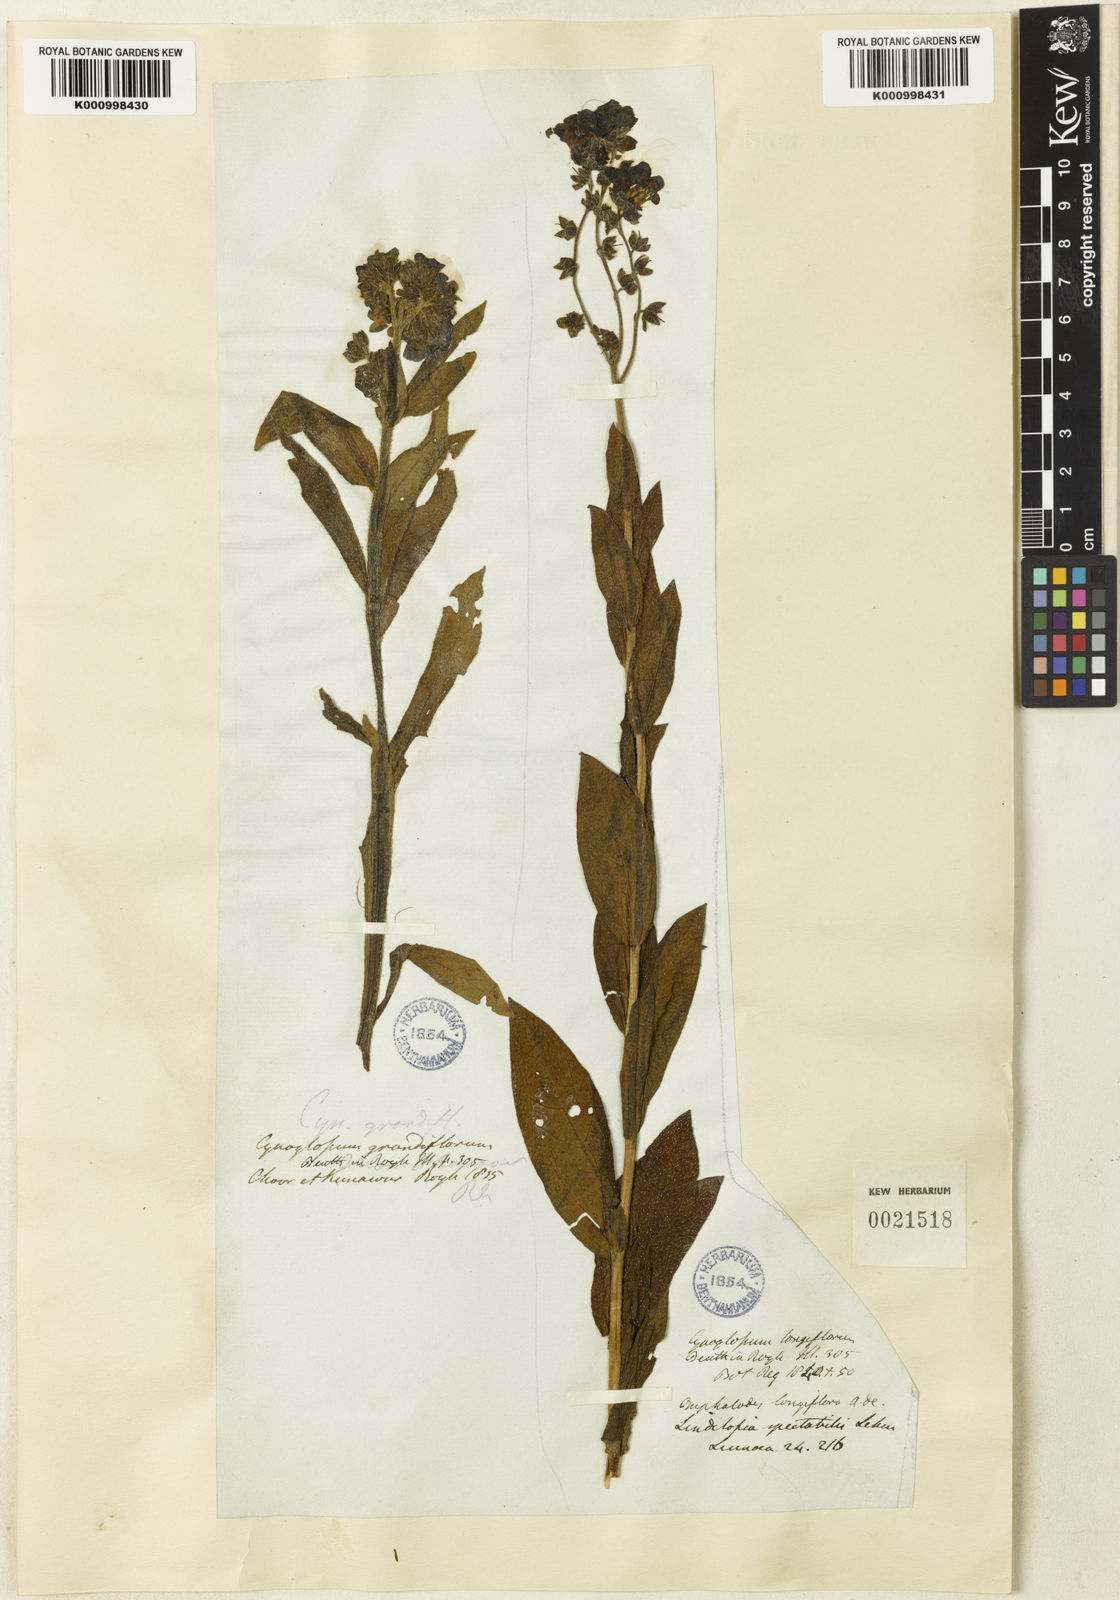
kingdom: Plantae
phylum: Tracheophyta
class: Magnoliopsida
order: Boraginales
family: Boraginaceae
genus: Lindelofia
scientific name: Lindelofia longiflora
